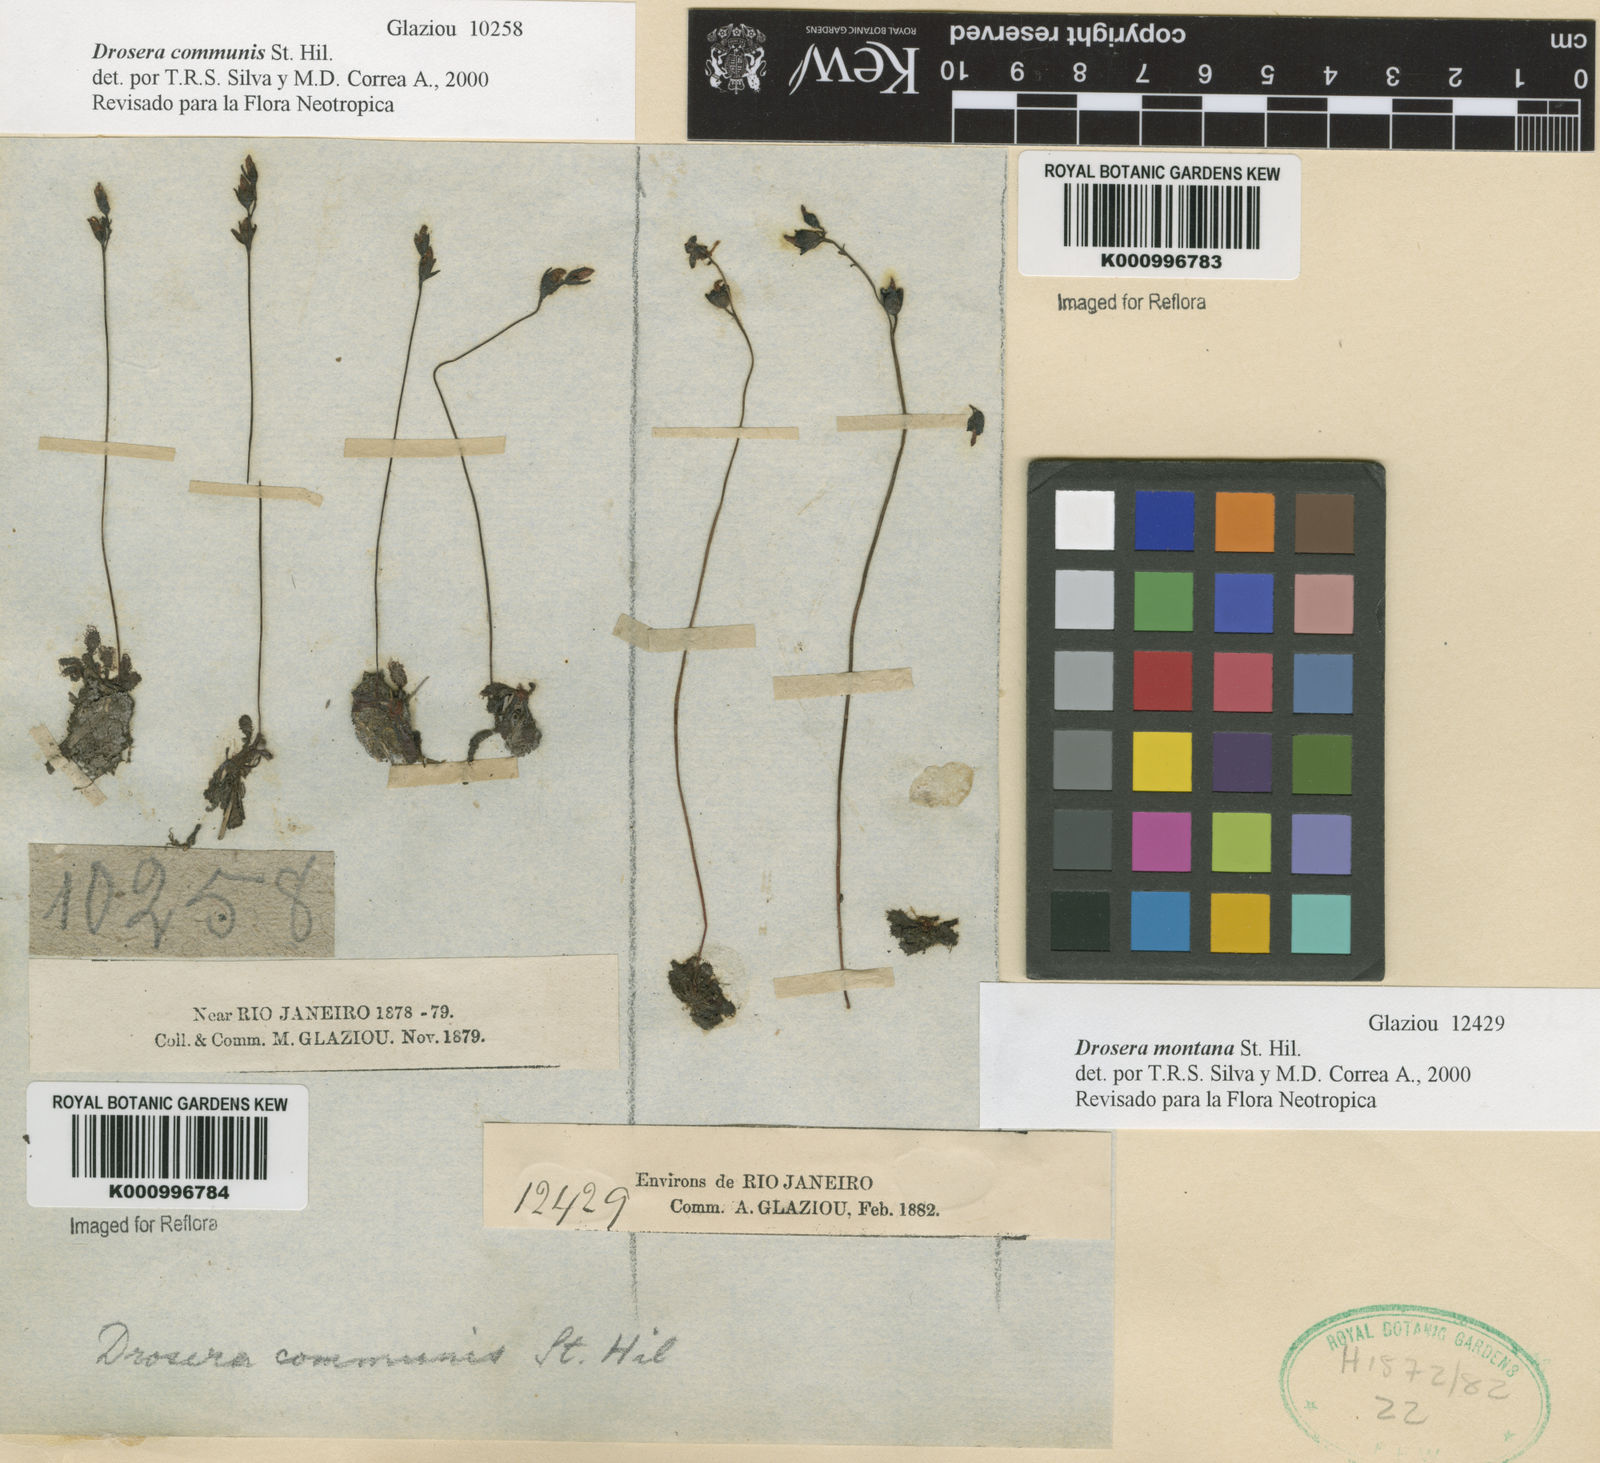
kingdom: Plantae
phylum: Tracheophyta
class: Magnoliopsida
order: Caryophyllales
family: Droseraceae
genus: Drosera
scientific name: Drosera communis
